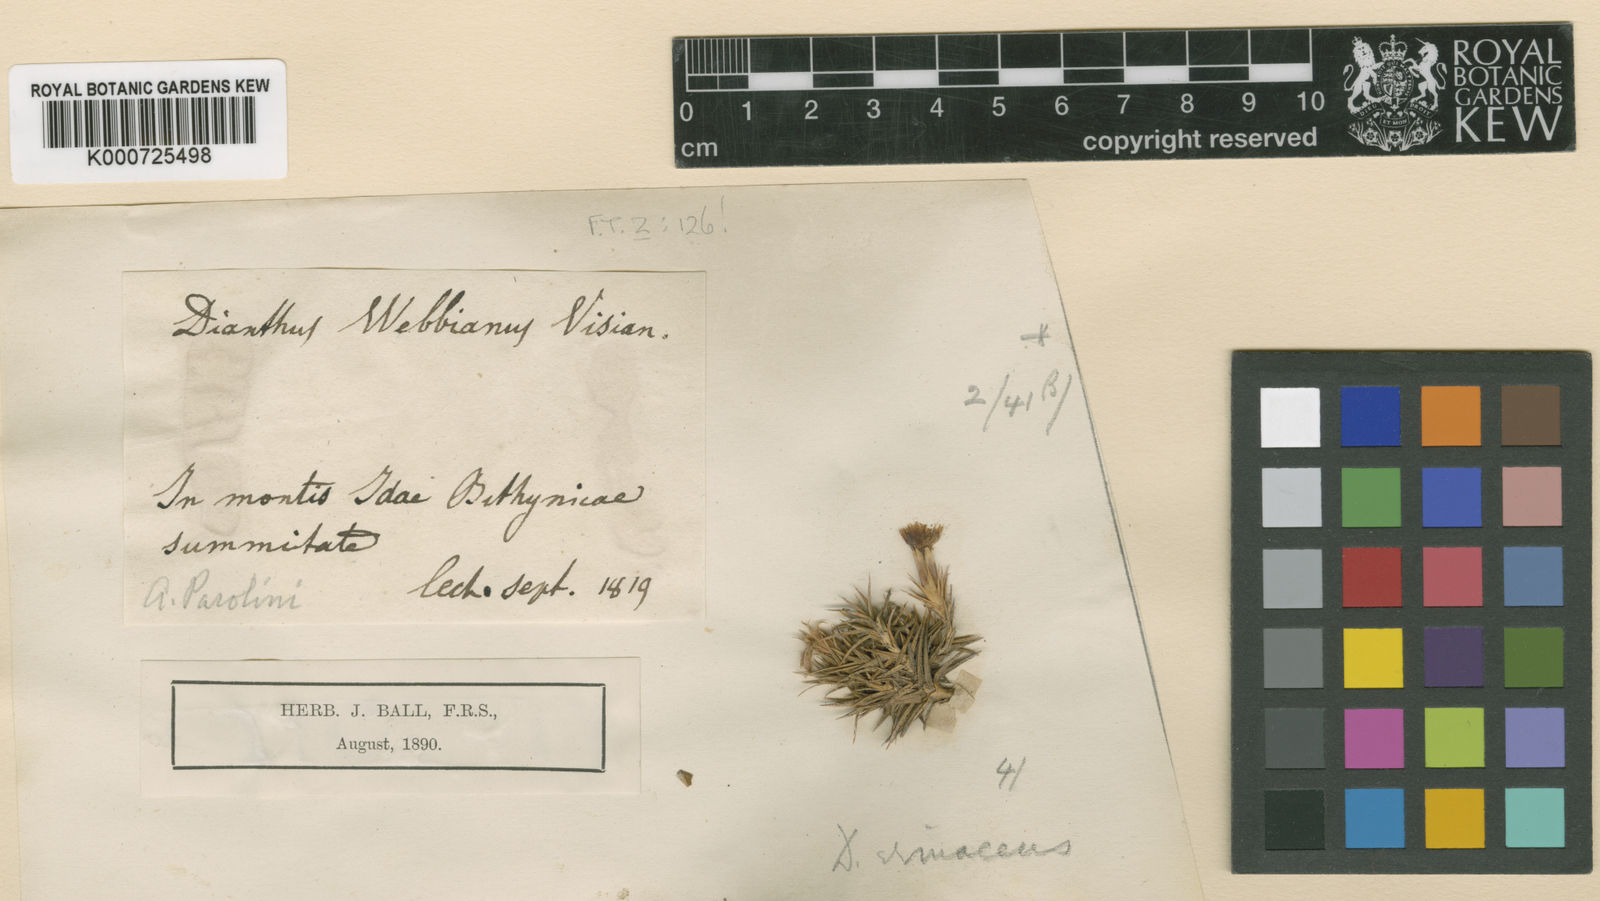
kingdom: Plantae
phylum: Tracheophyta
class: Magnoliopsida
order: Caryophyllales
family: Caryophyllaceae
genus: Dianthus
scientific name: Dianthus webbianus
